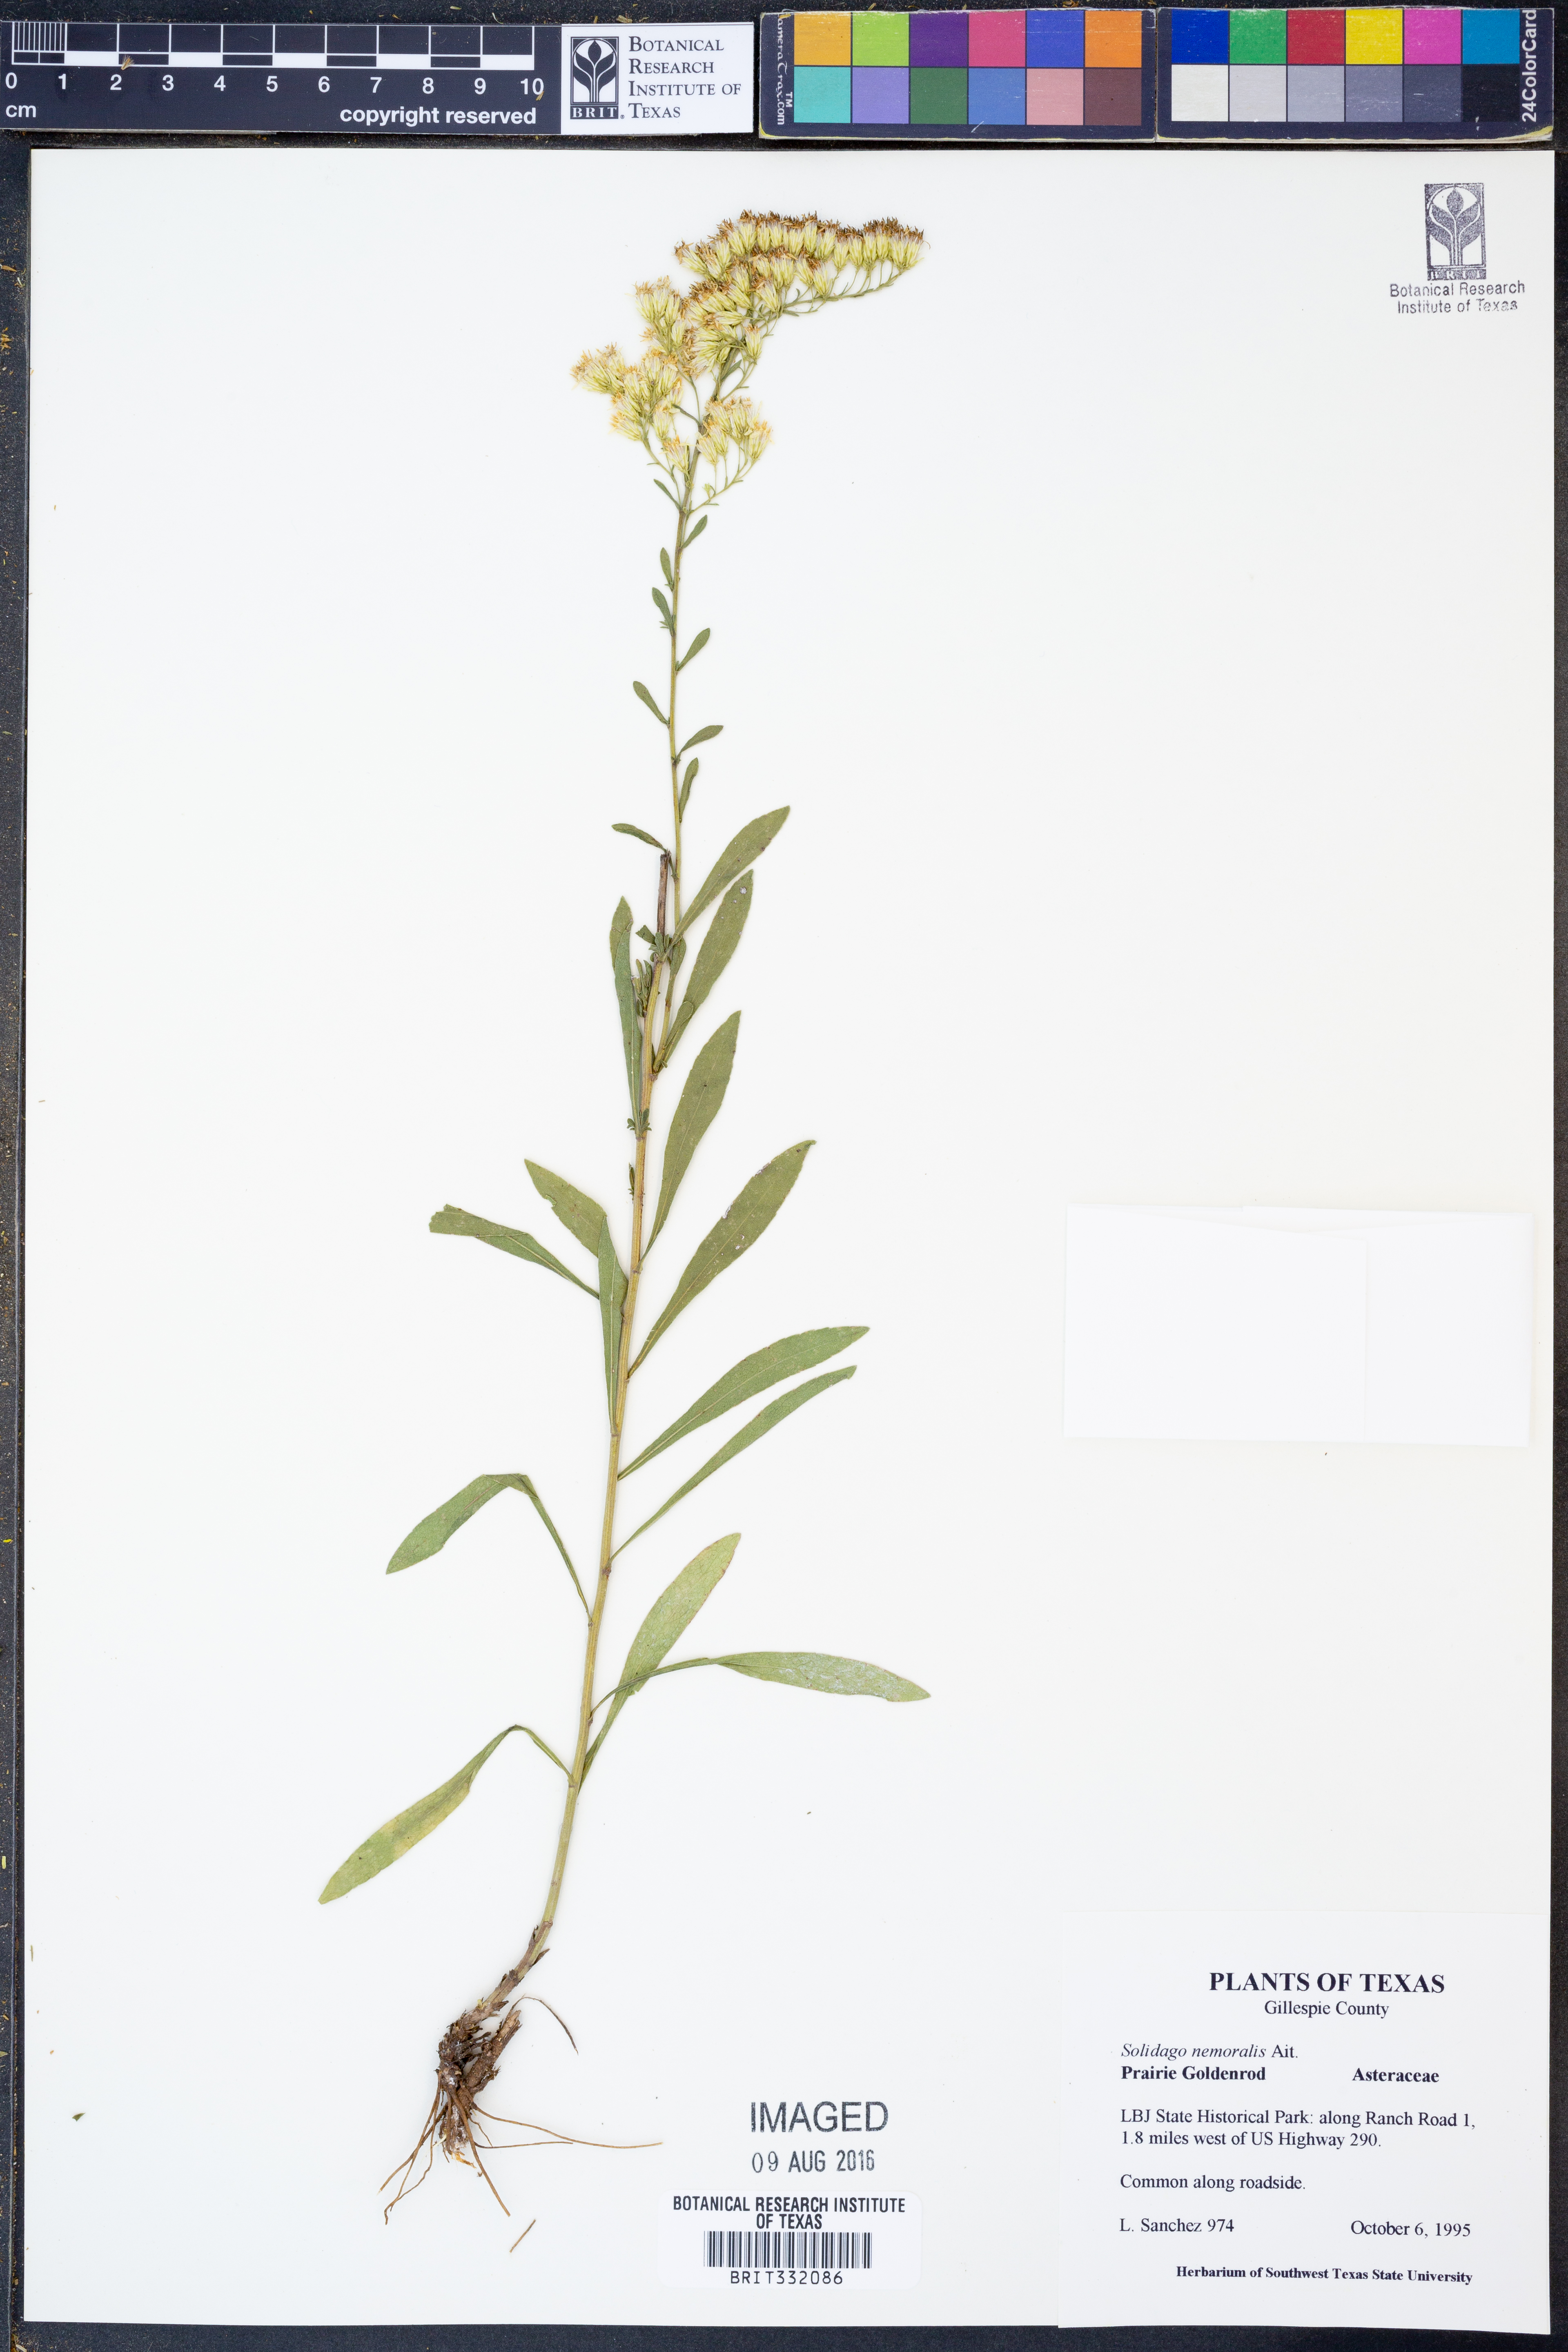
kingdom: Plantae
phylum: Tracheophyta
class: Magnoliopsida
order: Asterales
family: Asteraceae
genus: Solidago
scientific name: Solidago nemoralis
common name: Grey goldenrod
